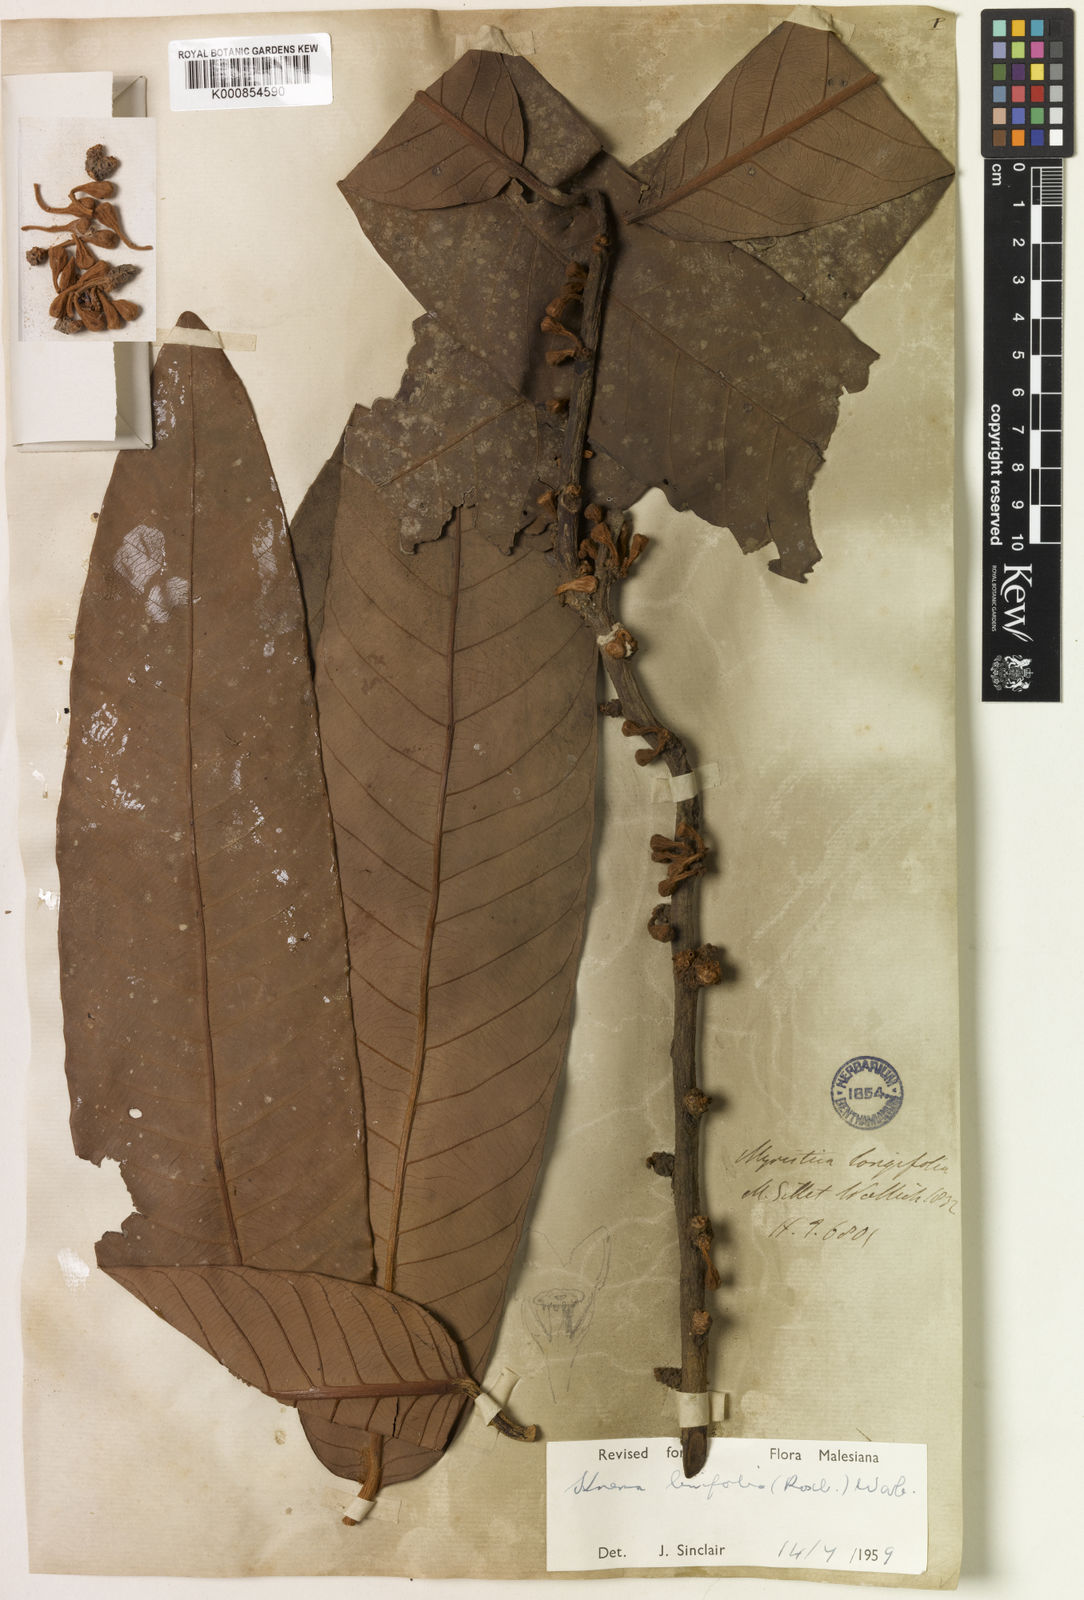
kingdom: Plantae
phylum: Tracheophyta
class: Magnoliopsida
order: Magnoliales
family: Myristicaceae
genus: Knema
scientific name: Knema linifolia
